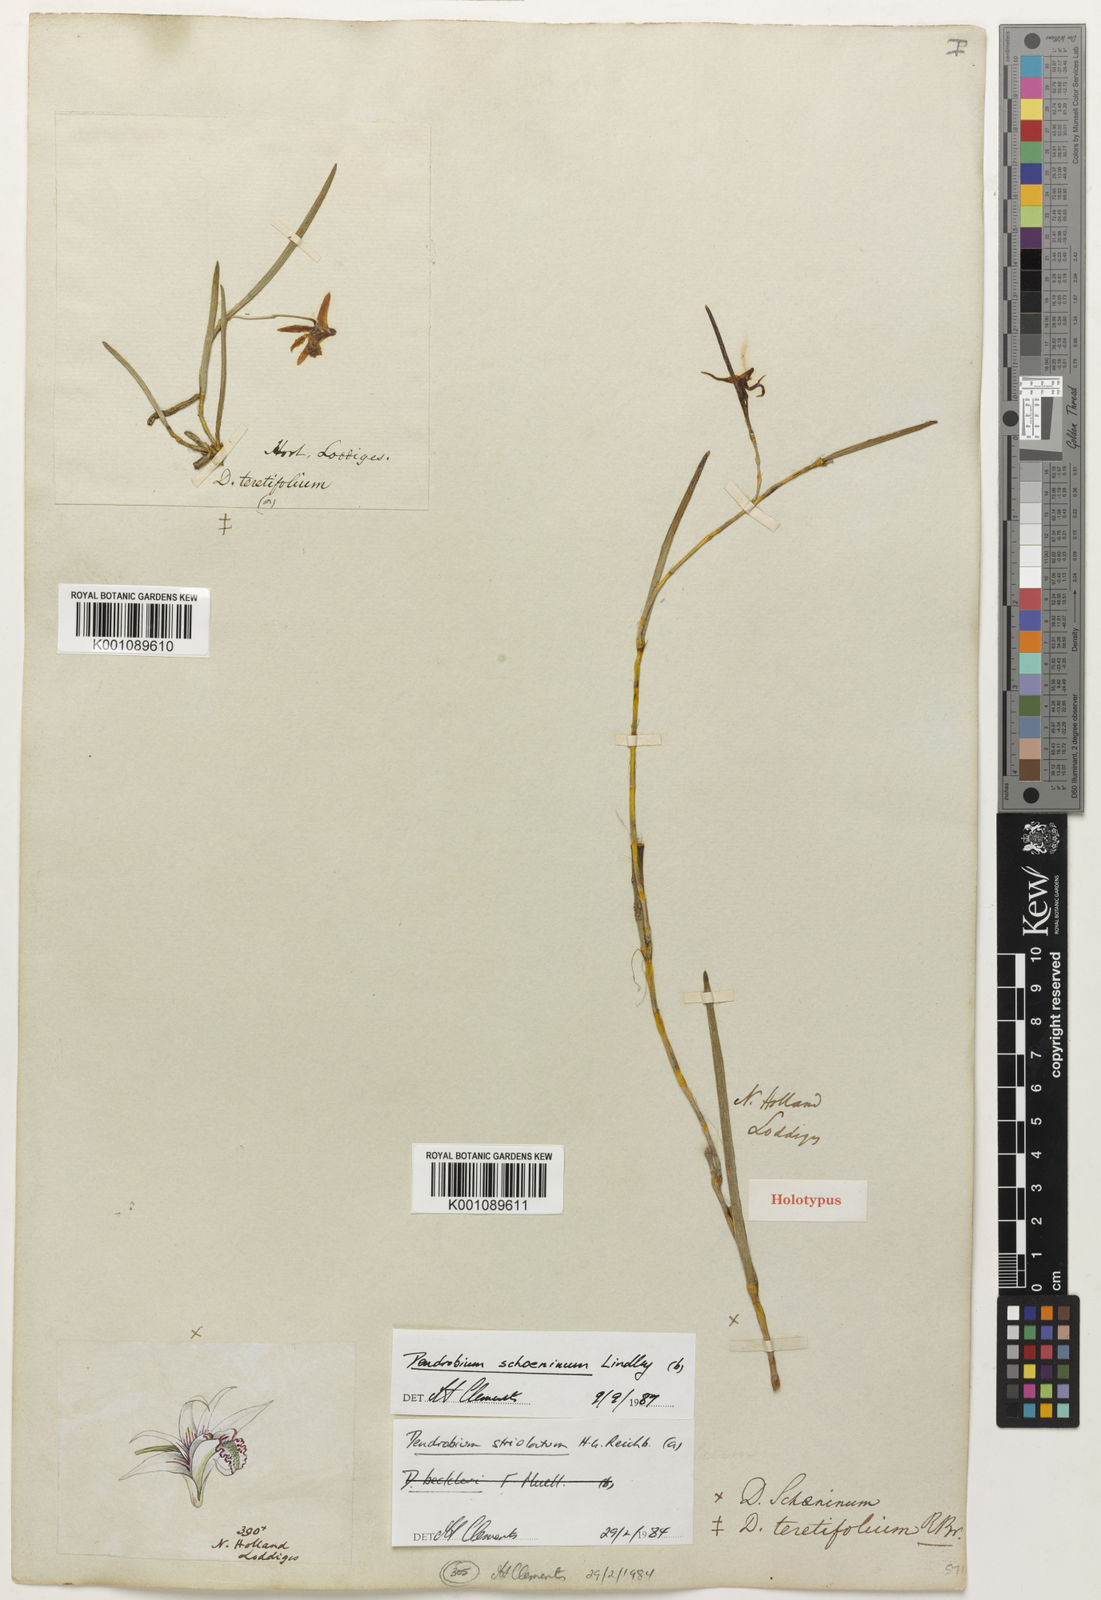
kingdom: Plantae
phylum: Tracheophyta
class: Liliopsida
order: Asparagales
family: Orchidaceae
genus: Dendrobium
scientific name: Dendrobium teretifolium
